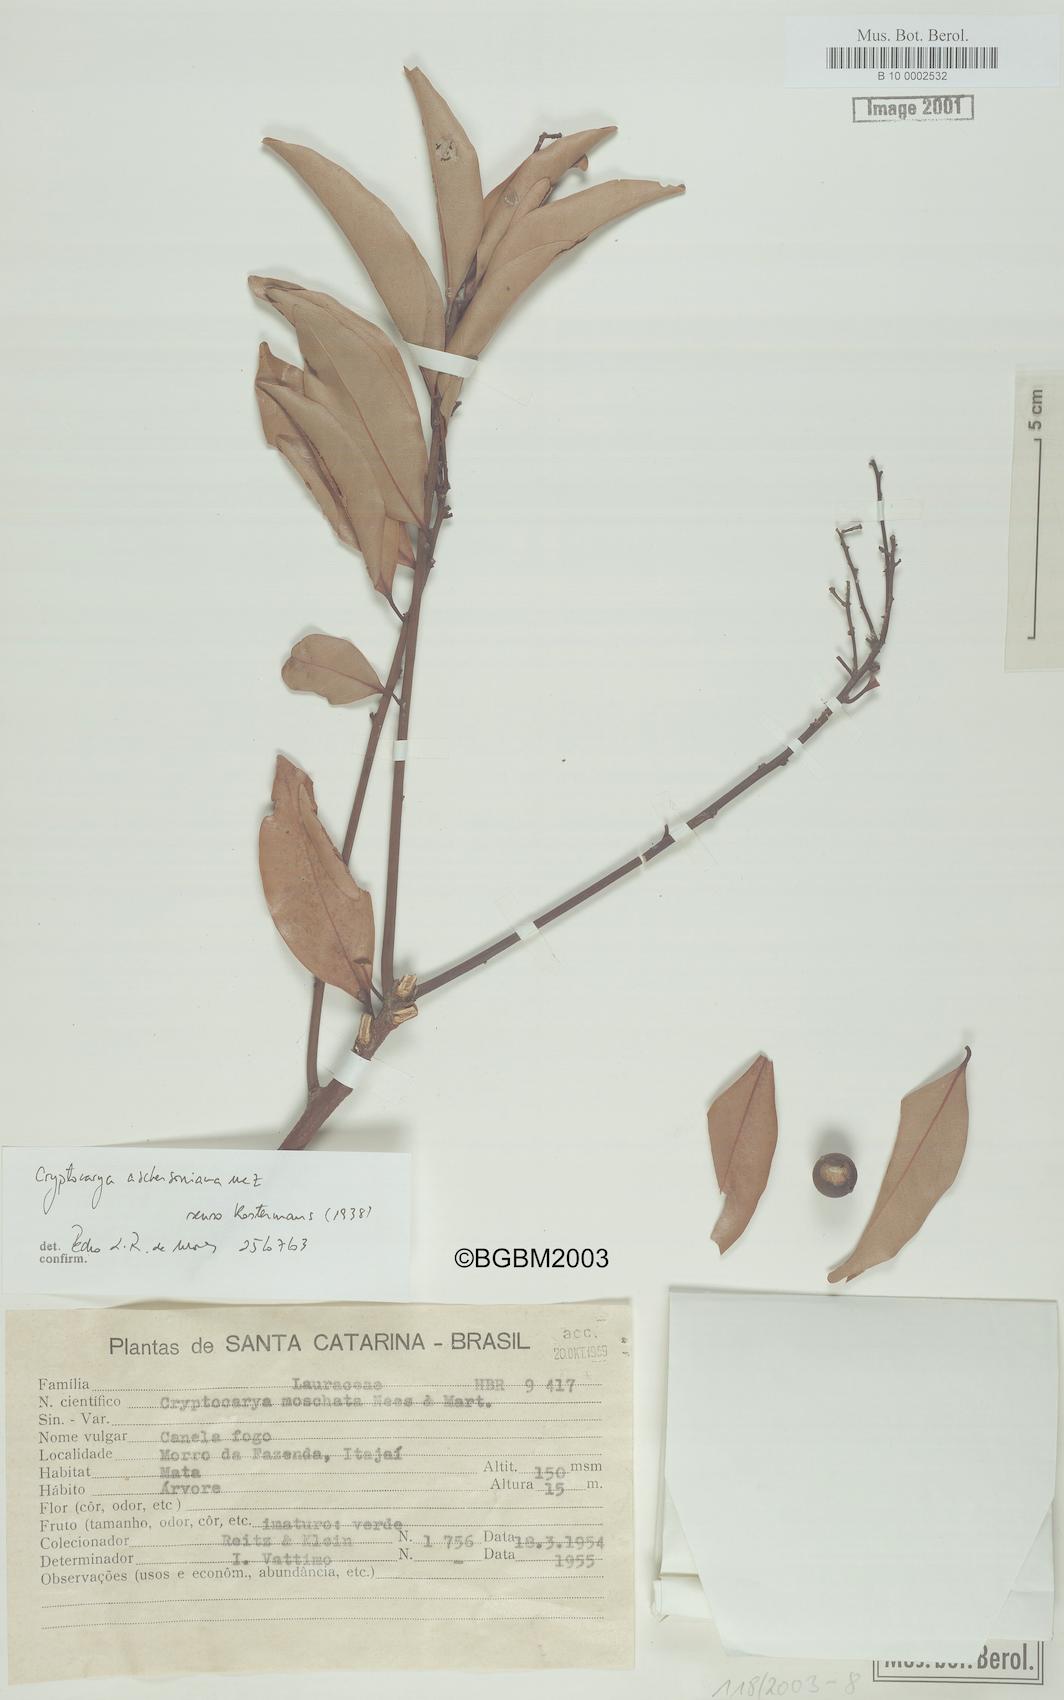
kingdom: Plantae
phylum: Tracheophyta
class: Magnoliopsida
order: Laurales
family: Lauraceae
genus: Cryptocarya
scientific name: Cryptocarya moschata
